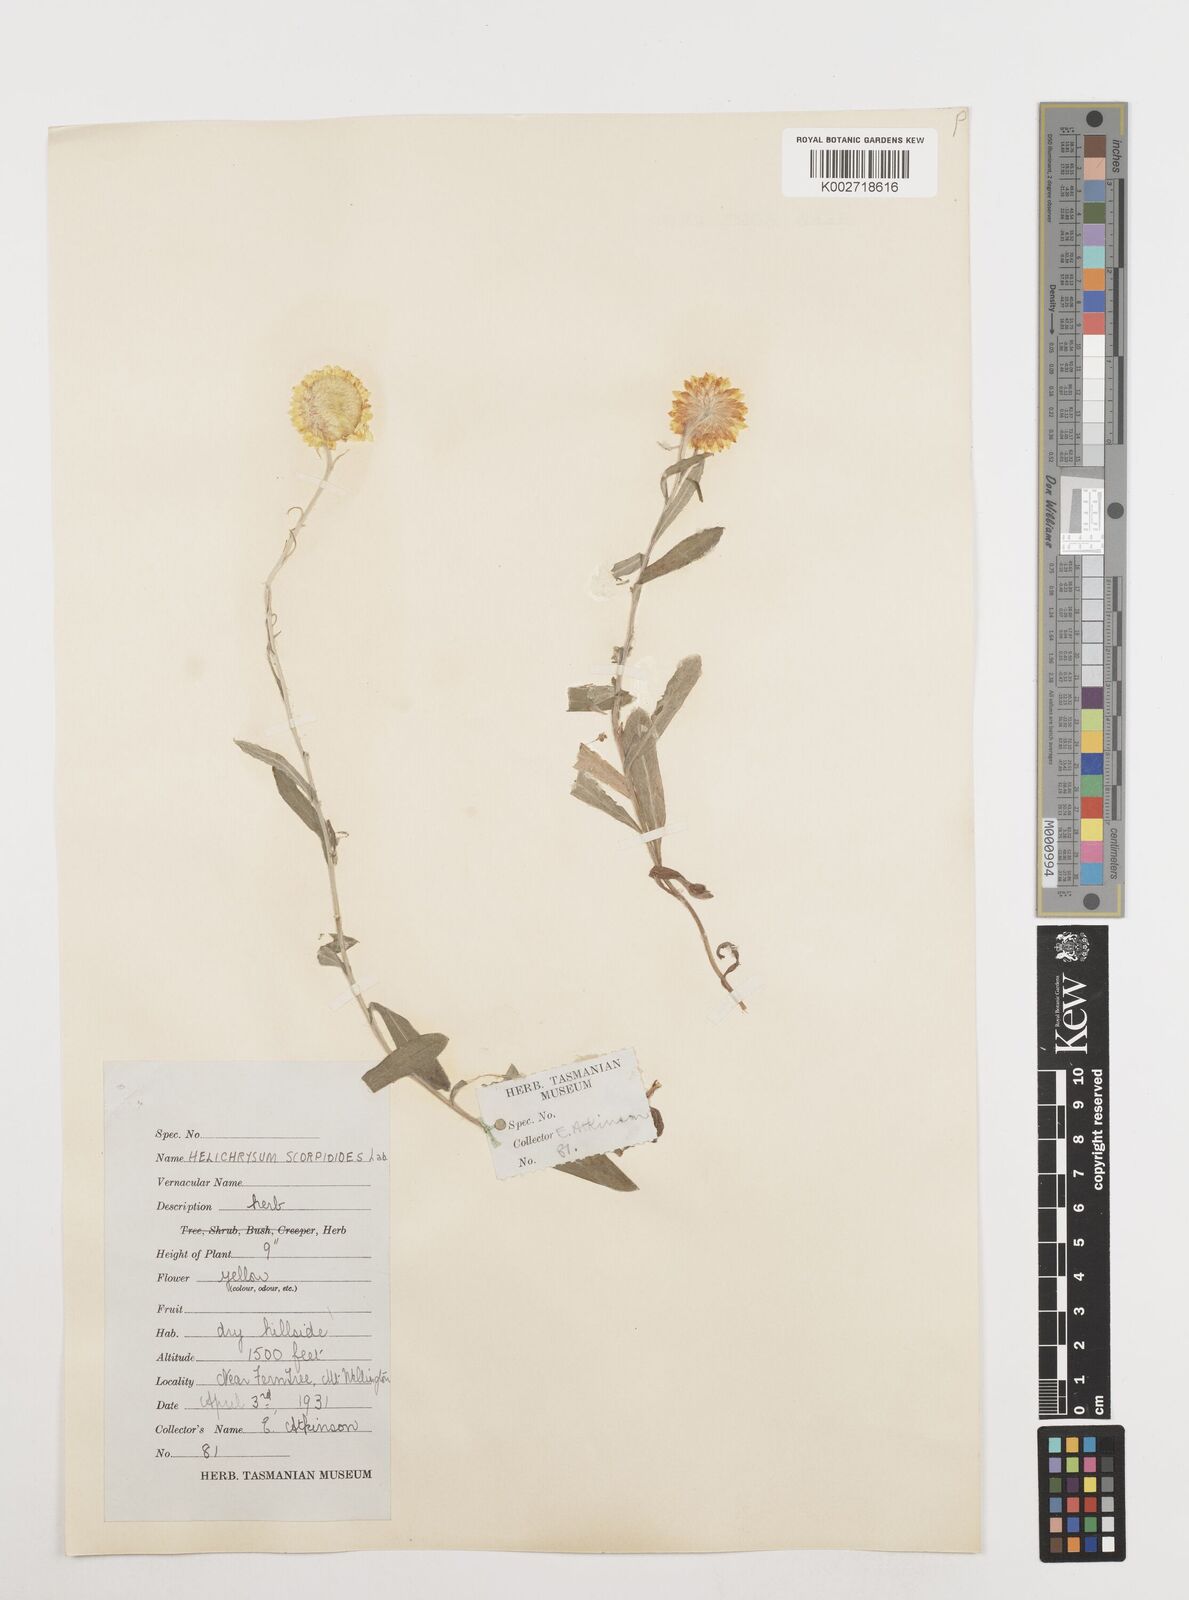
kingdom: Plantae
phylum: Tracheophyta
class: Magnoliopsida
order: Asterales
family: Asteraceae
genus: Coronidium
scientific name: Coronidium scorpioides
